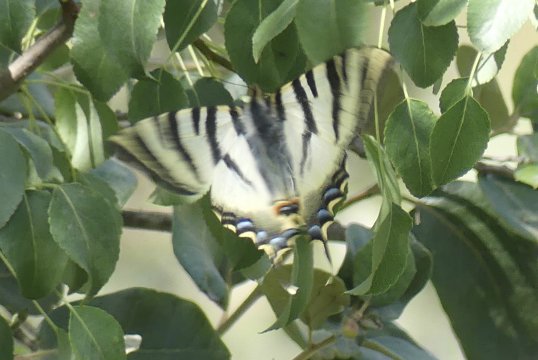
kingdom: Animalia
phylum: Arthropoda
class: Insecta
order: Lepidoptera
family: Papilionidae
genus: Iphiclides
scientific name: Iphiclides feisthamelii
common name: Iberian Scarce Swallowtail
